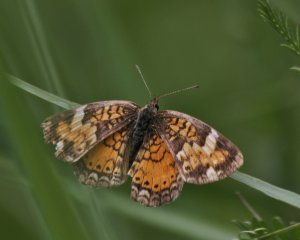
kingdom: Animalia
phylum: Arthropoda
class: Insecta
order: Lepidoptera
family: Nymphalidae
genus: Phyciodes
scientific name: Phyciodes tharos
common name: Northern Crescent
